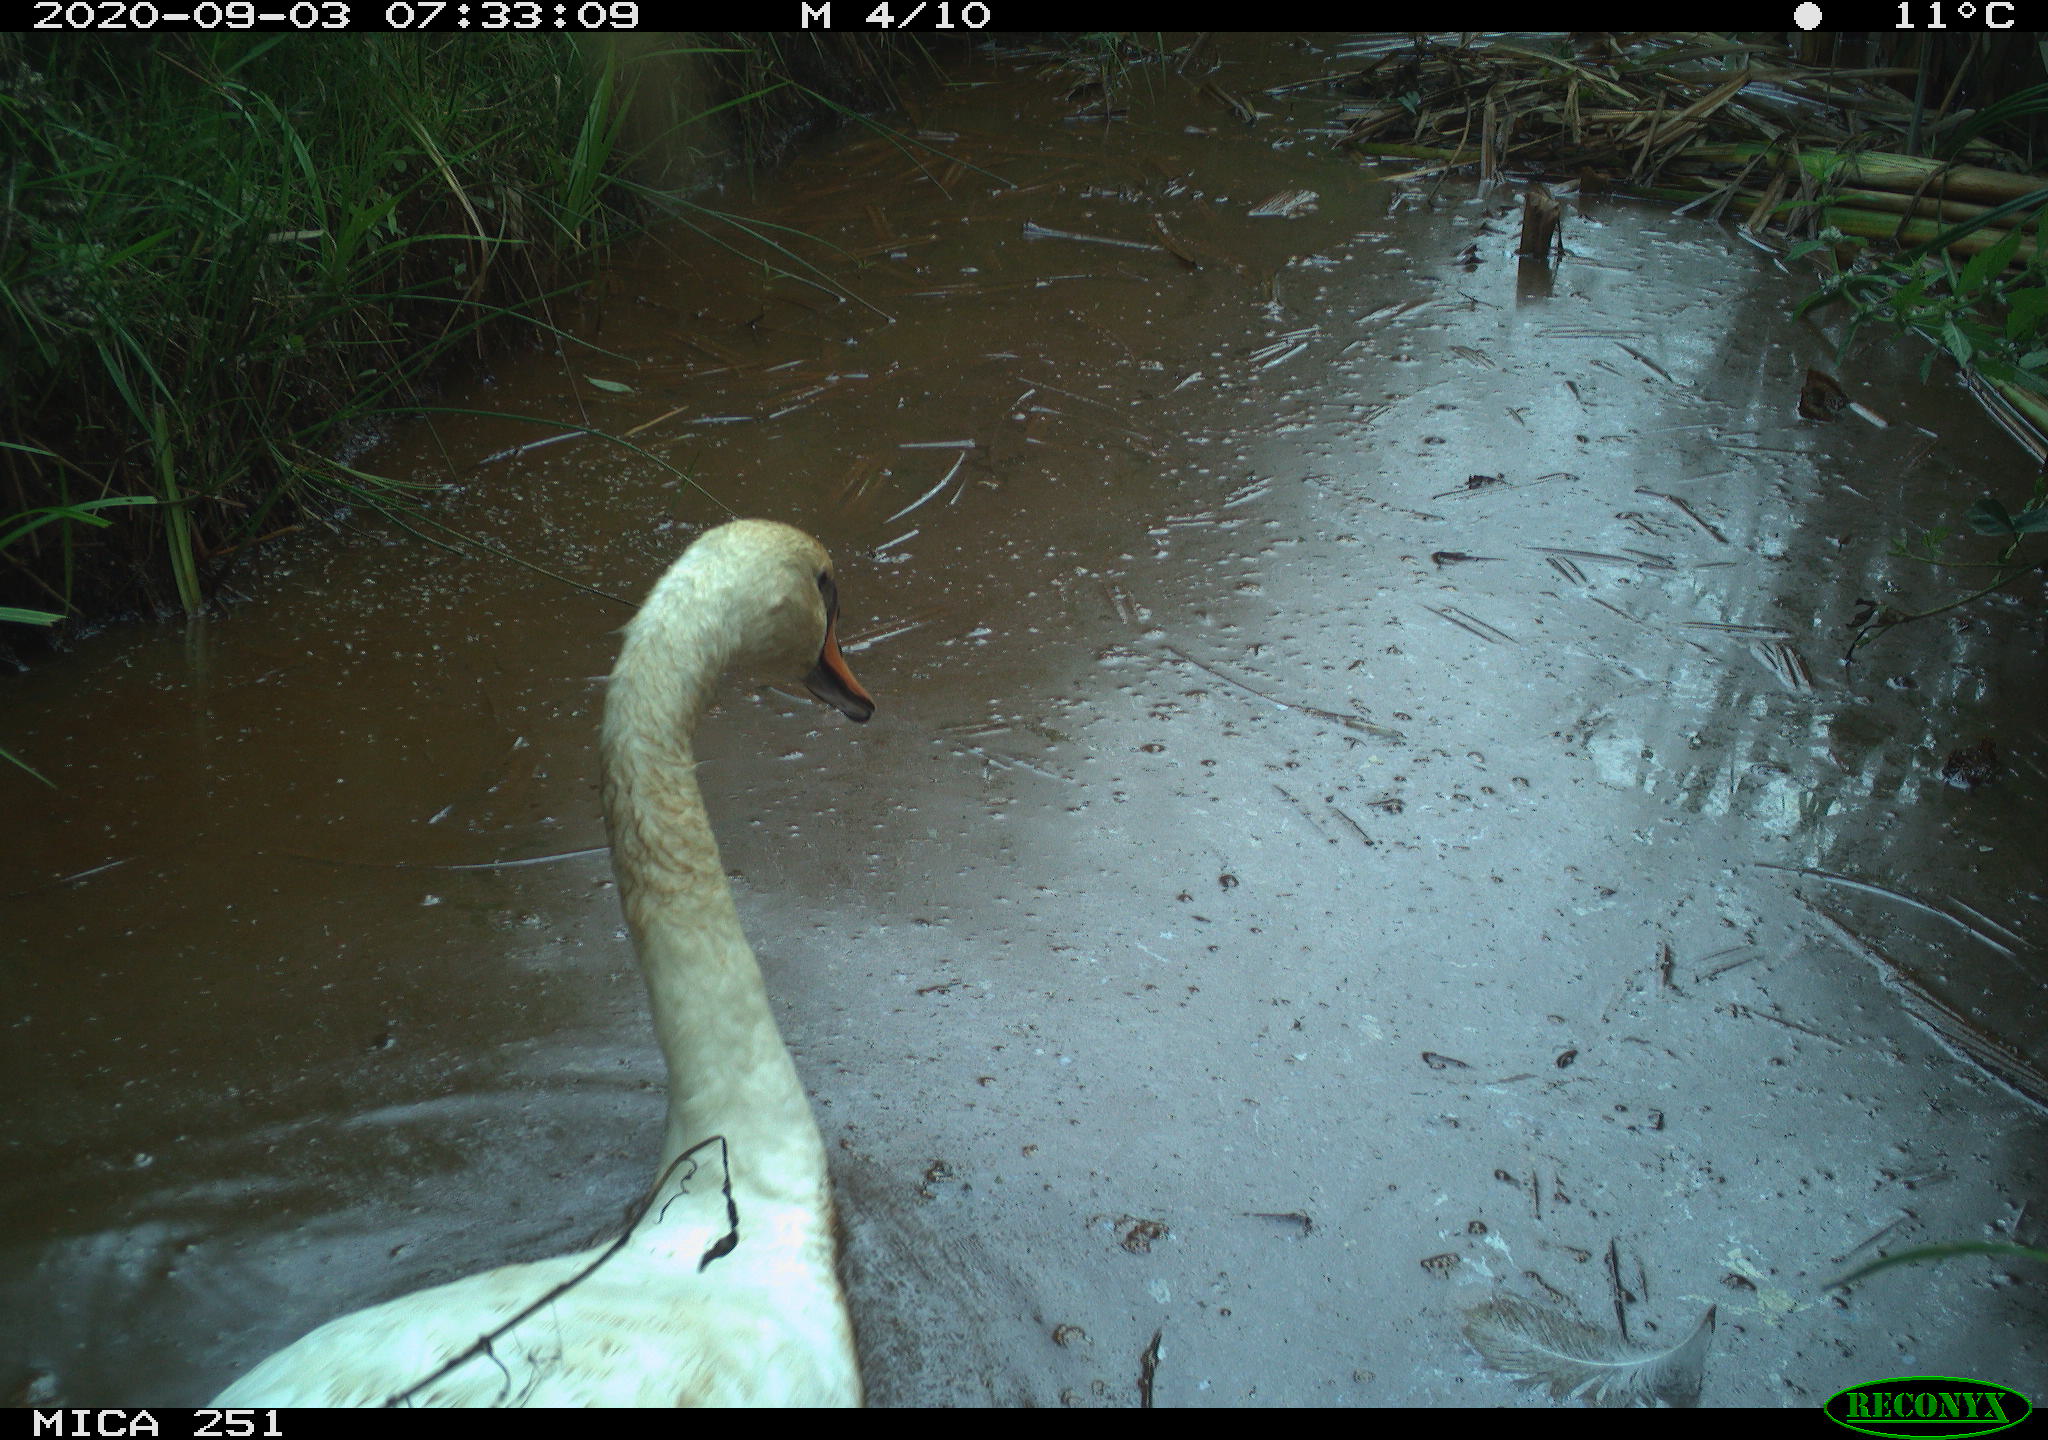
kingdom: Animalia
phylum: Chordata
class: Aves
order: Anseriformes
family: Anatidae
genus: Cygnus
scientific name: Cygnus olor
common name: Mute swan
